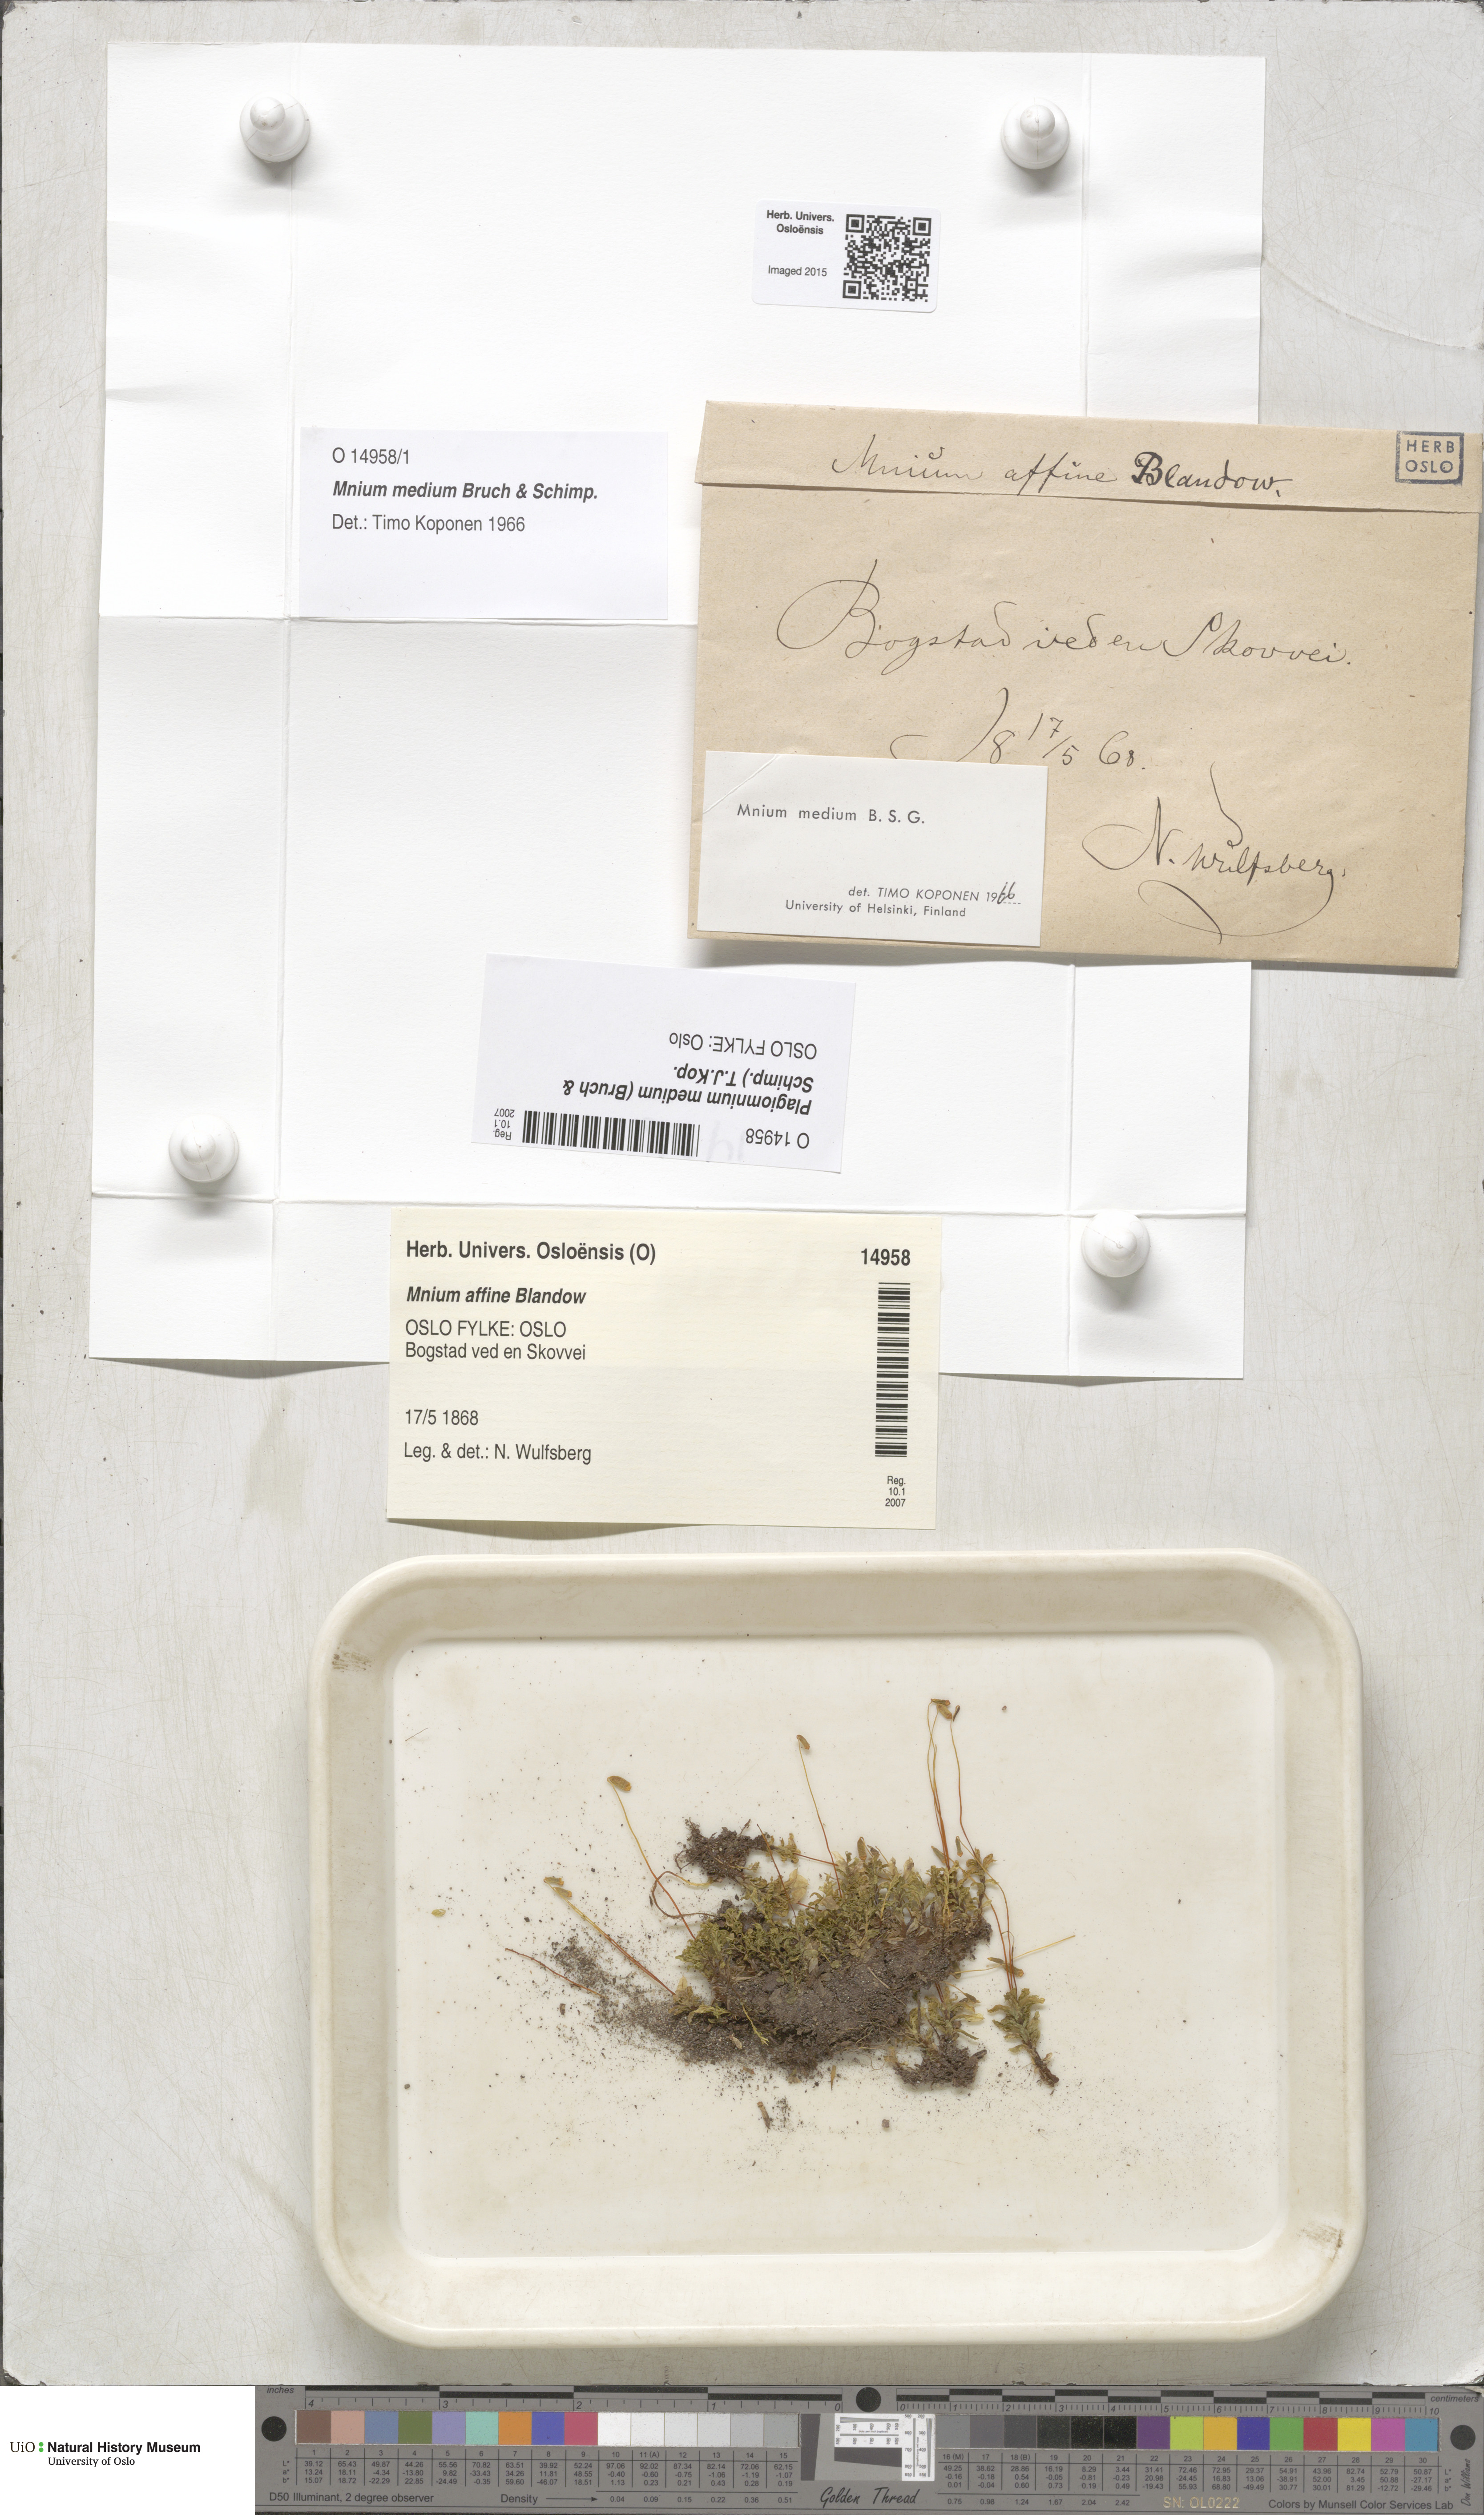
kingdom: Plantae
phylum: Bryophyta
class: Bryopsida
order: Bryales
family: Mniaceae
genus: Plagiomnium
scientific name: Plagiomnium medium
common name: Alpine leafy moss
